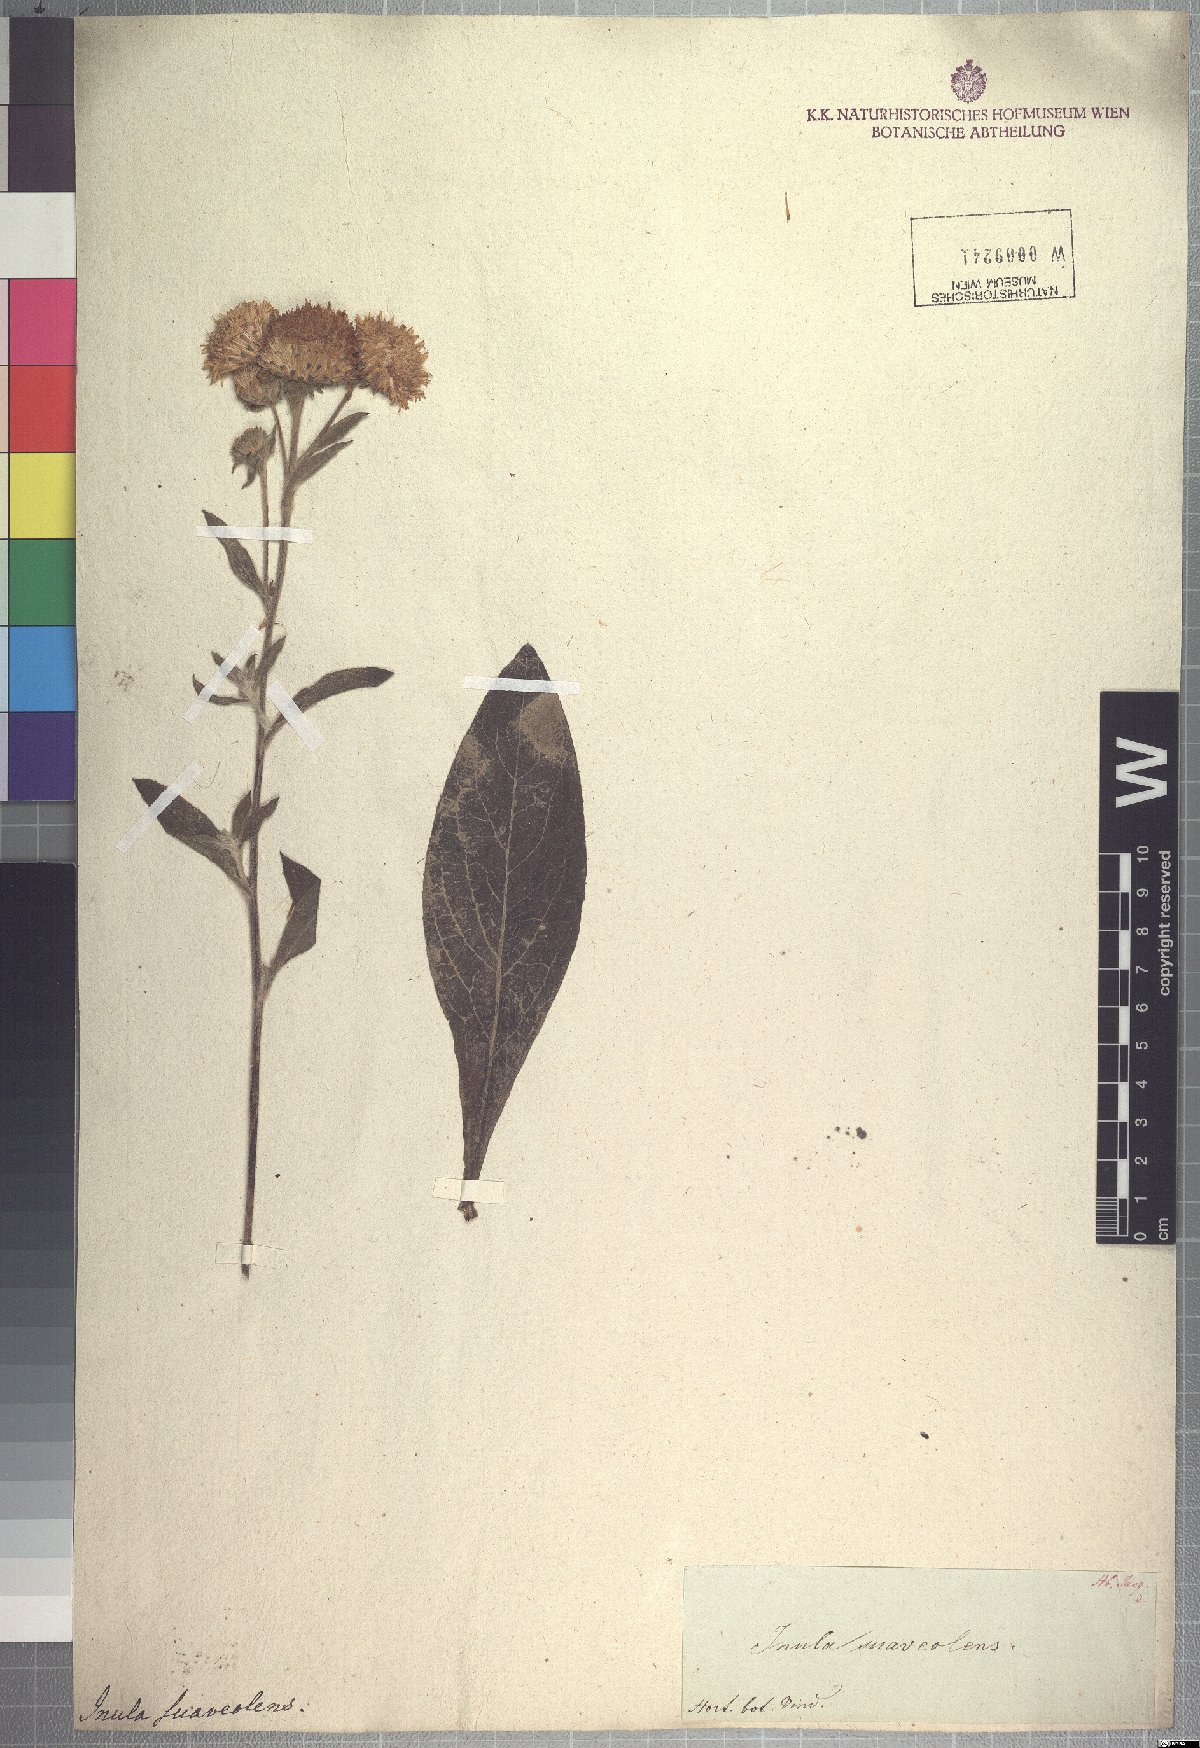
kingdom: Plantae
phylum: Tracheophyta
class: Magnoliopsida
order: Asterales
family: Asteraceae
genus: Pentanema
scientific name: Pentanema suaveolens
